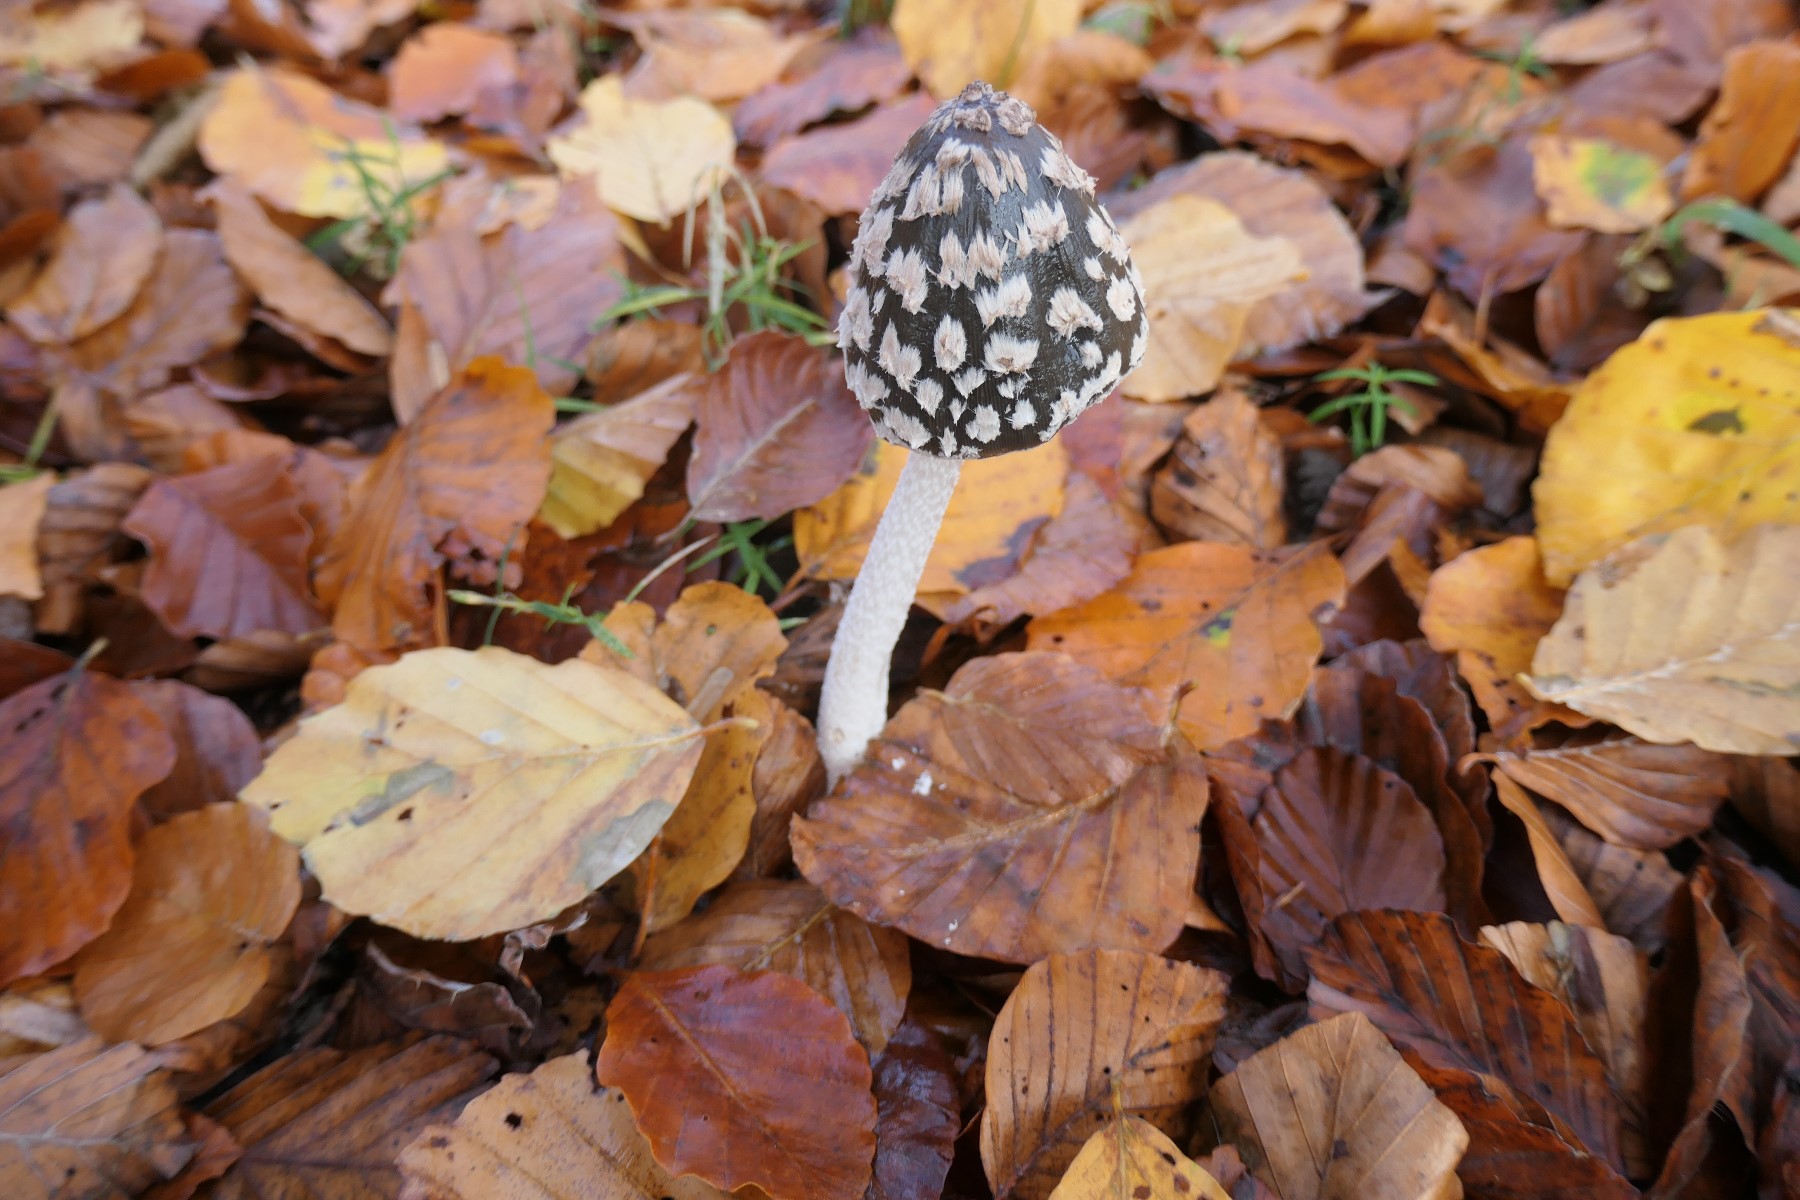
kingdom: Fungi
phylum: Basidiomycota
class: Agaricomycetes
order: Agaricales
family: Psathyrellaceae
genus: Coprinopsis
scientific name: Coprinopsis picacea
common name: skade-blækhat
